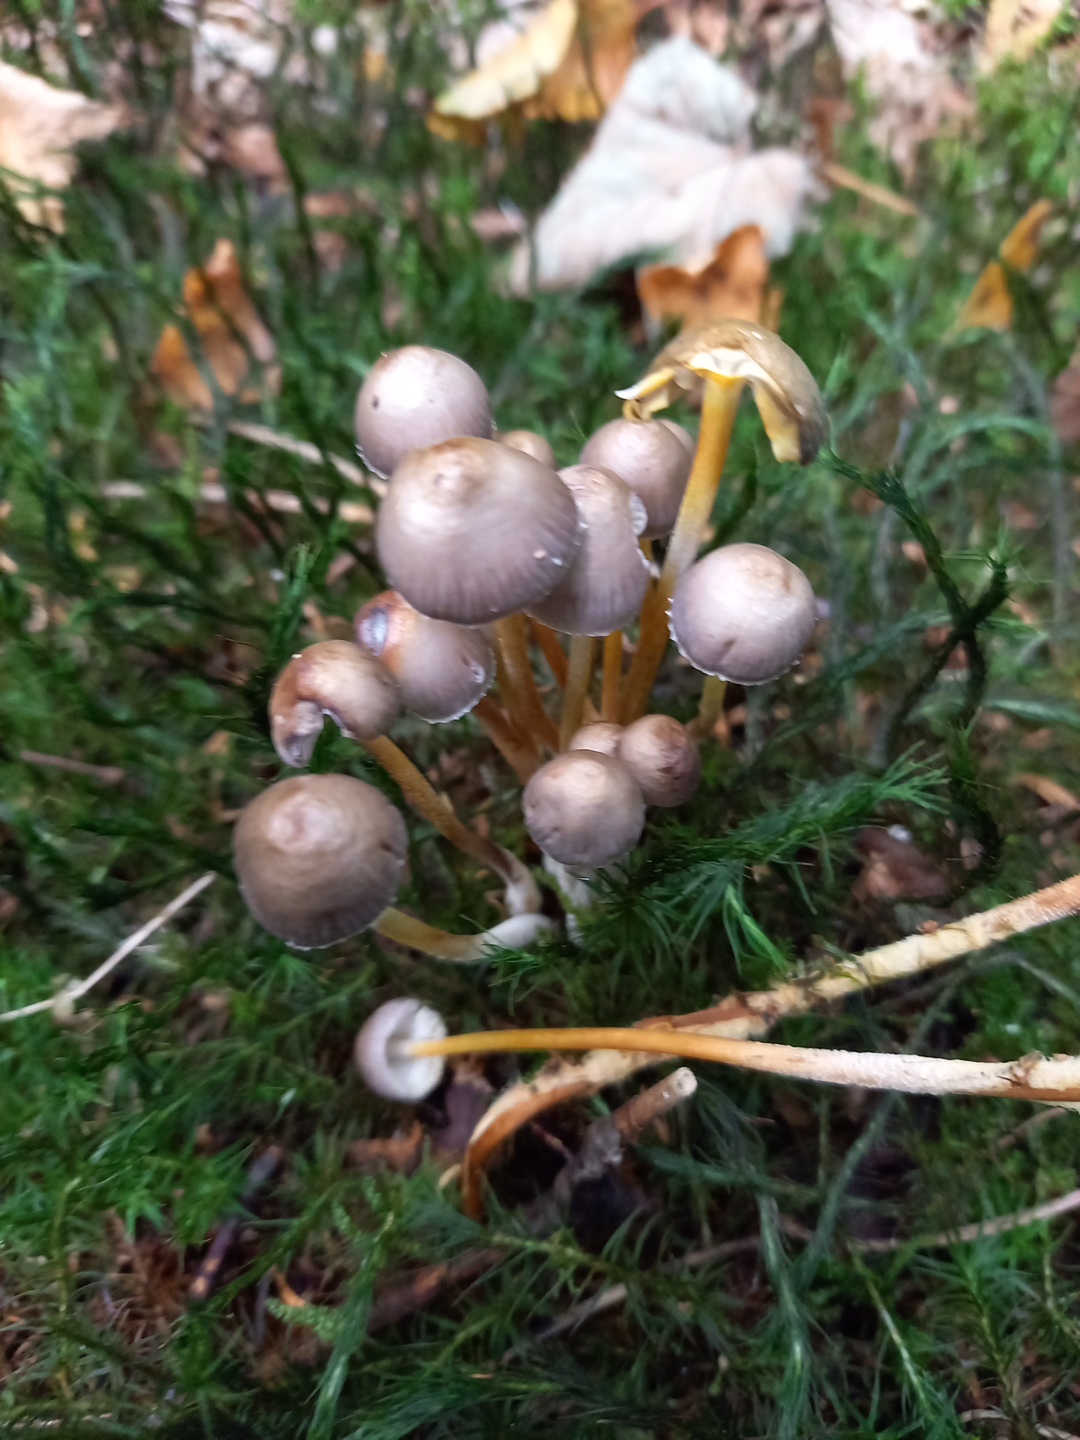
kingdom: Fungi
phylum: Basidiomycota
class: Agaricomycetes
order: Agaricales
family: Mycenaceae
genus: Mycena
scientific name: Mycena inclinata
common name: nikkende huesvamp
